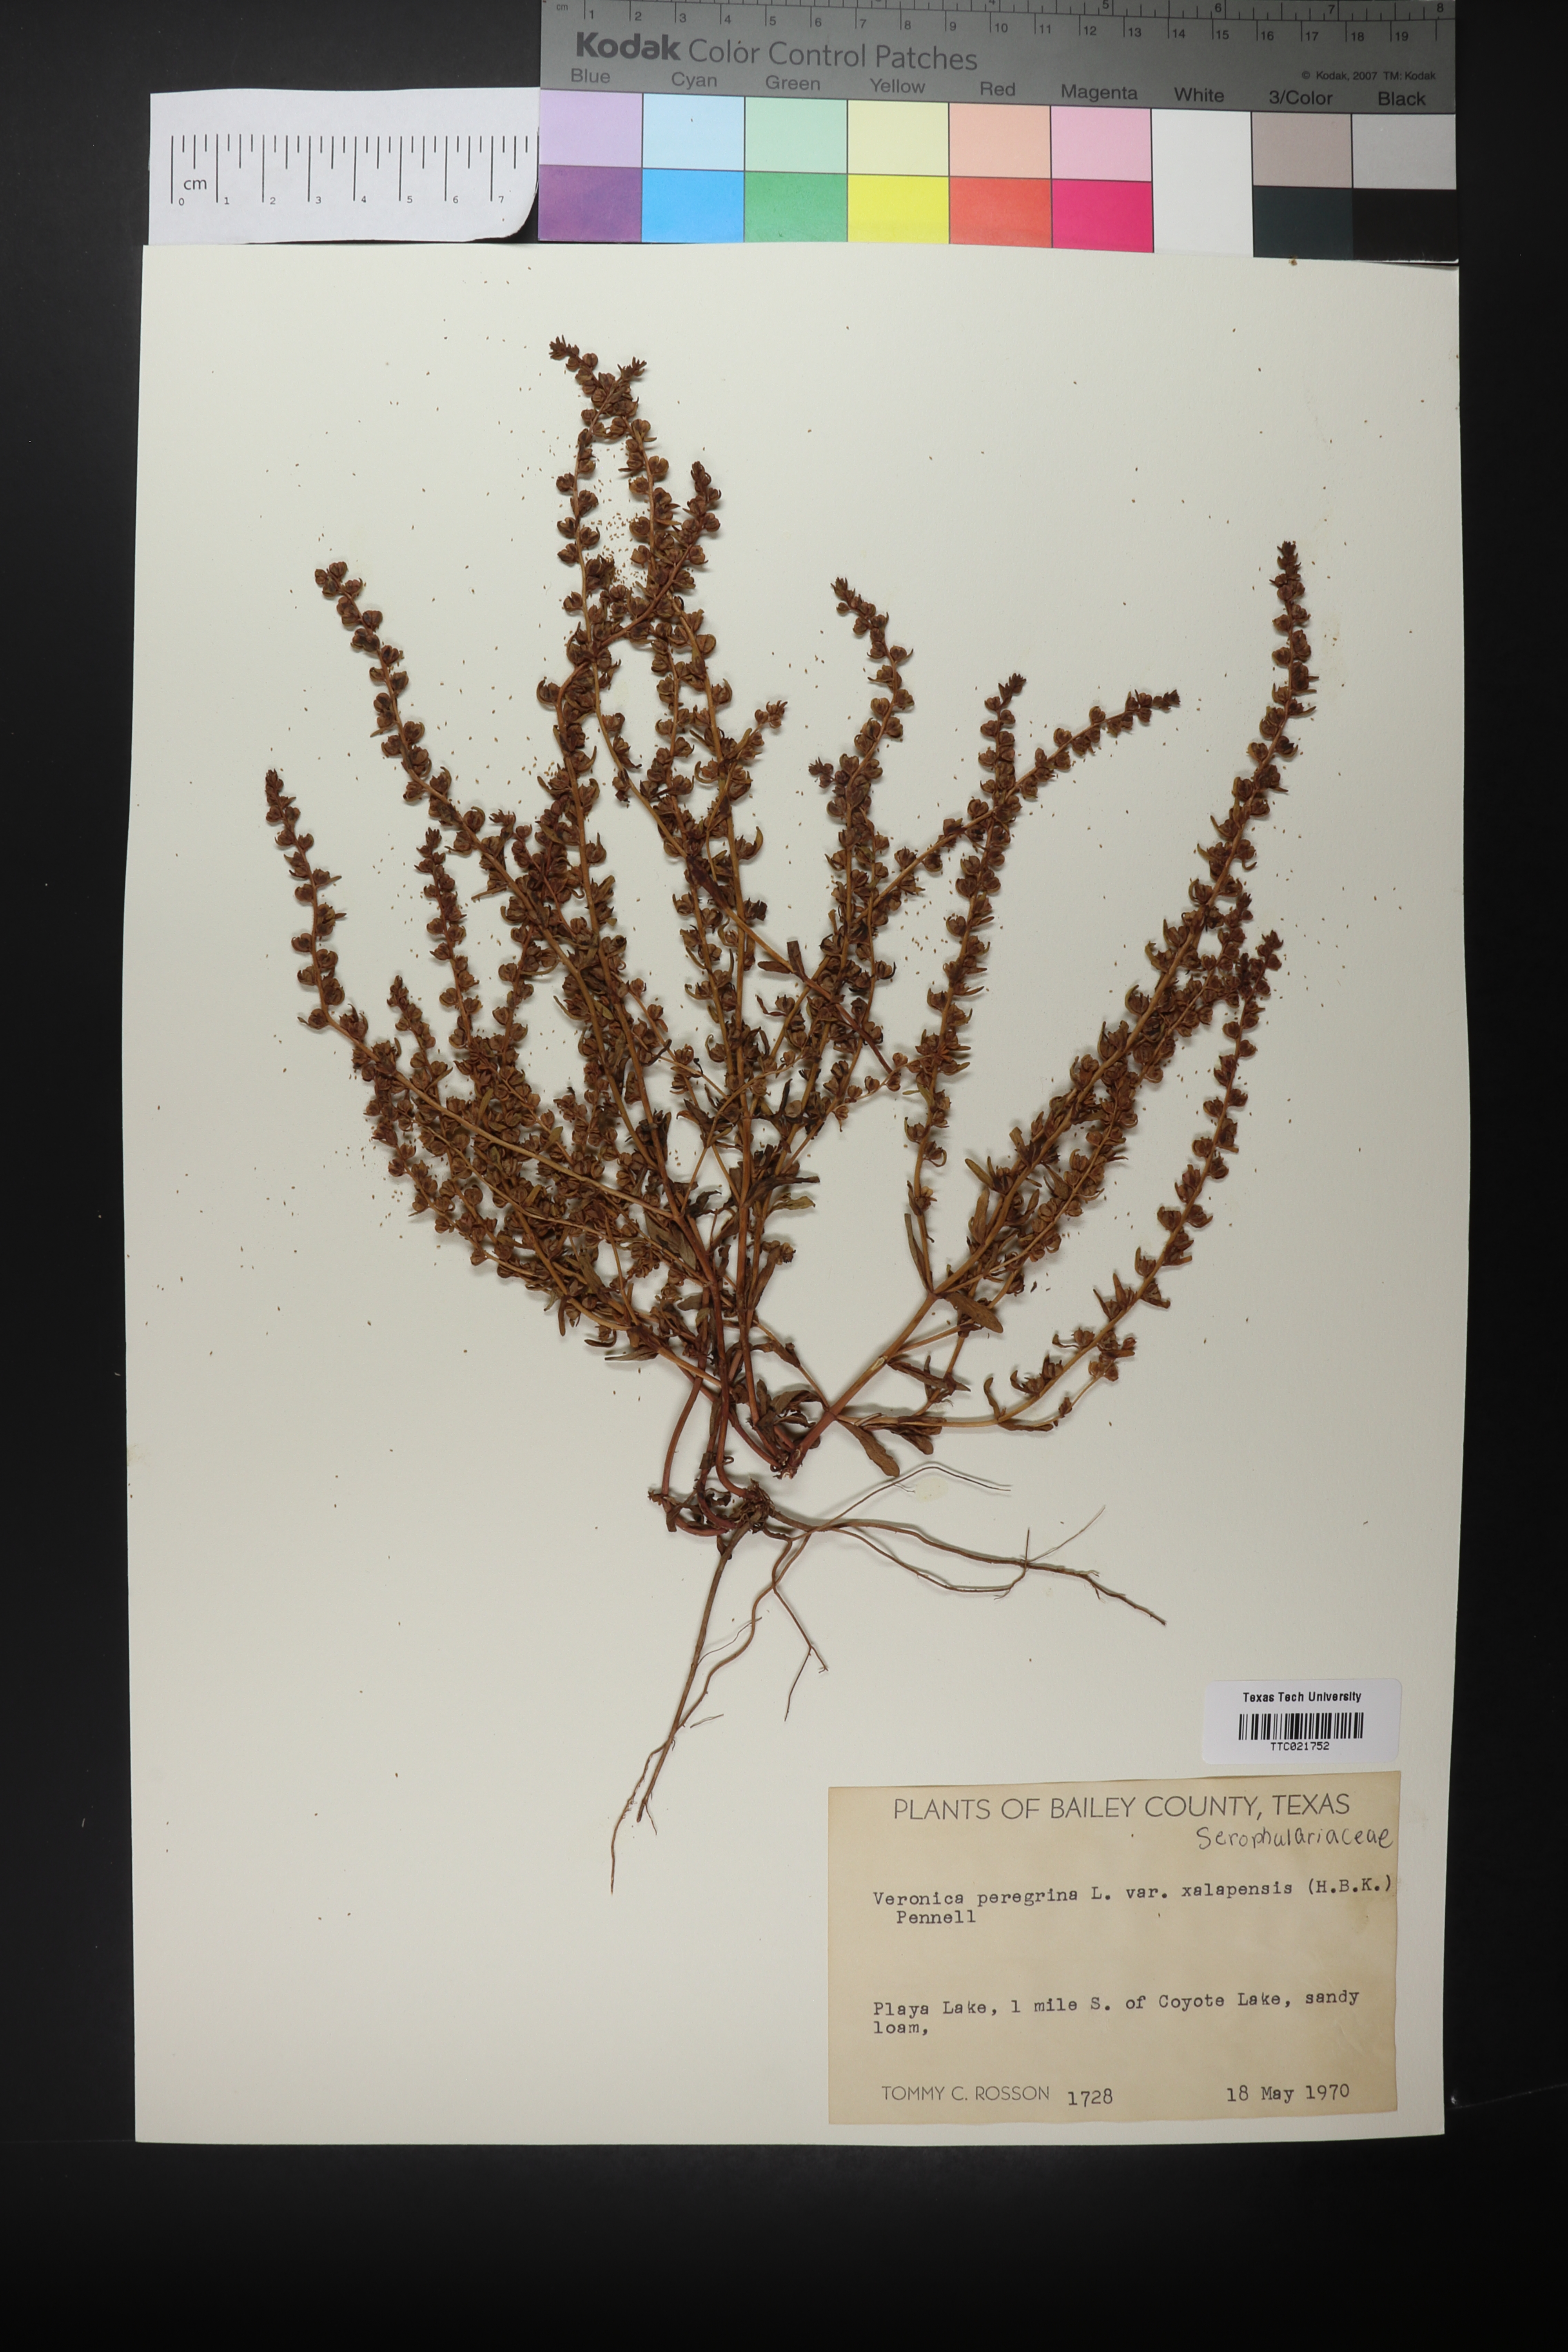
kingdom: Plantae
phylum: Tracheophyta
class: Magnoliopsida
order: Lamiales
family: Plantaginaceae
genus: Veronica
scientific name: Veronica peregrina
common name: Neckweed
